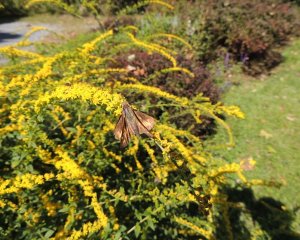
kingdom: Animalia
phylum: Arthropoda
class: Insecta
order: Lepidoptera
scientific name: Lepidoptera
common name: Butterflies
